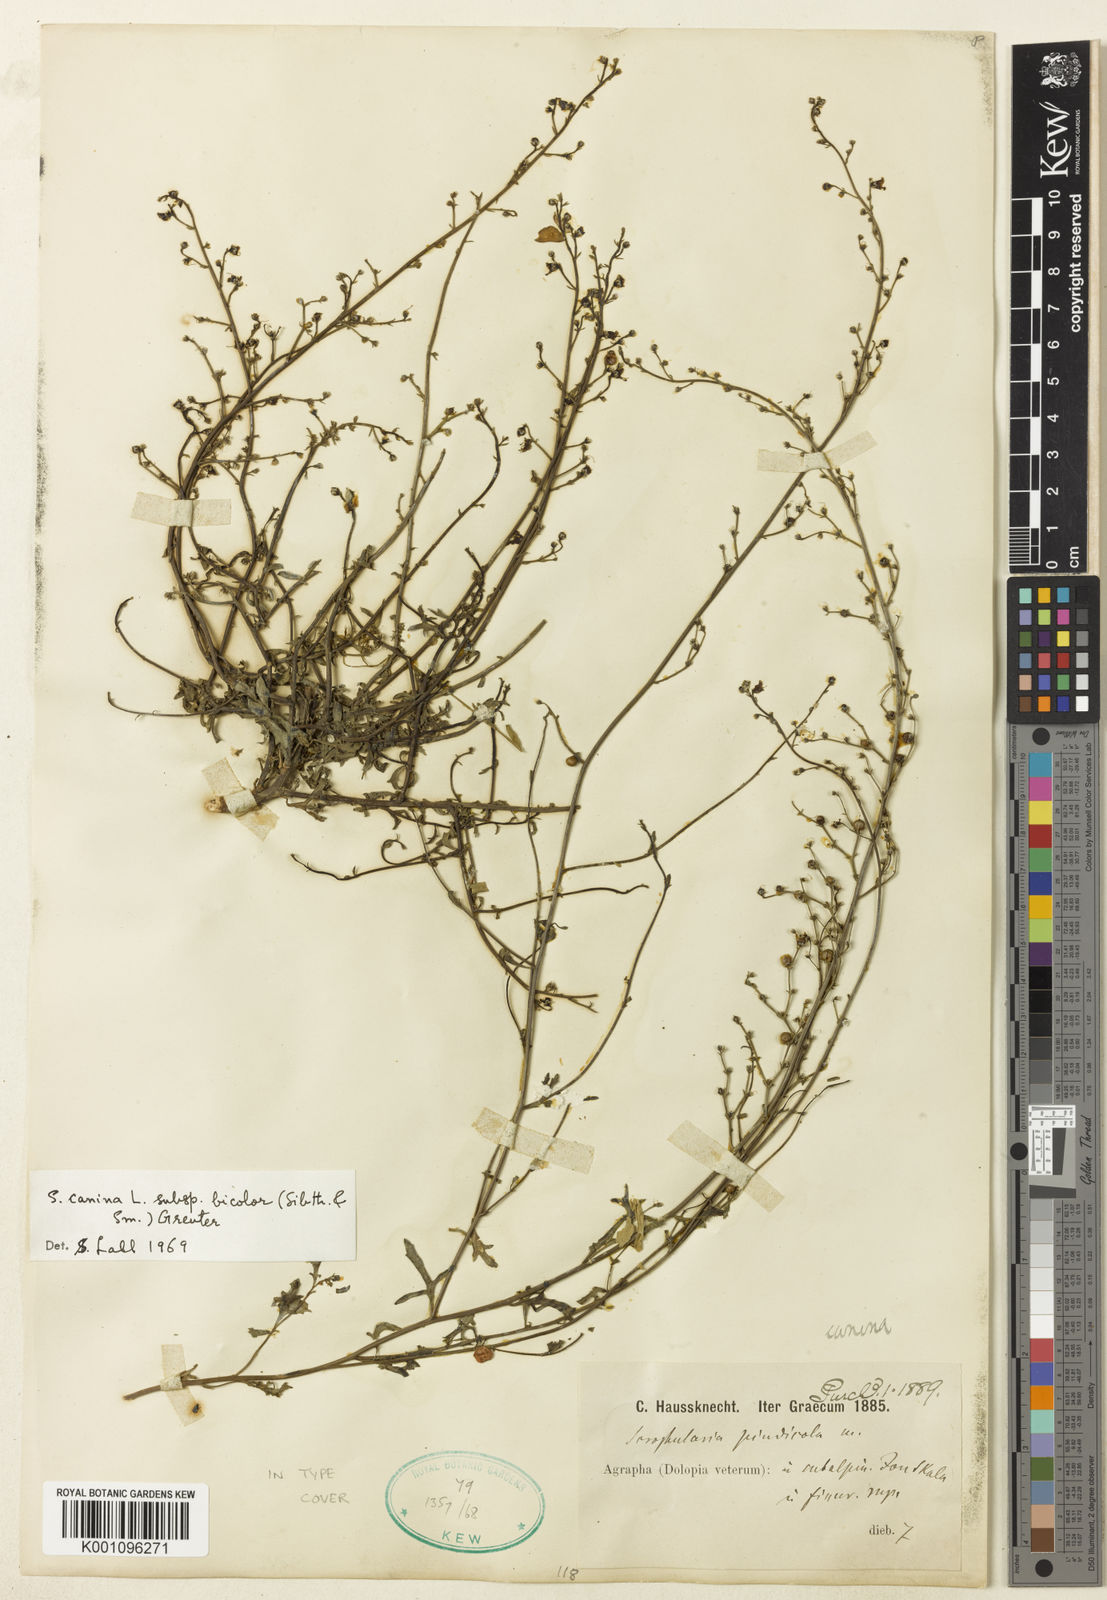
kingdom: Plantae
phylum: Tracheophyta
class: Magnoliopsida
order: Lamiales
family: Scrophulariaceae
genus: Scrophularia
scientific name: Scrophularia canina
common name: French figwort
